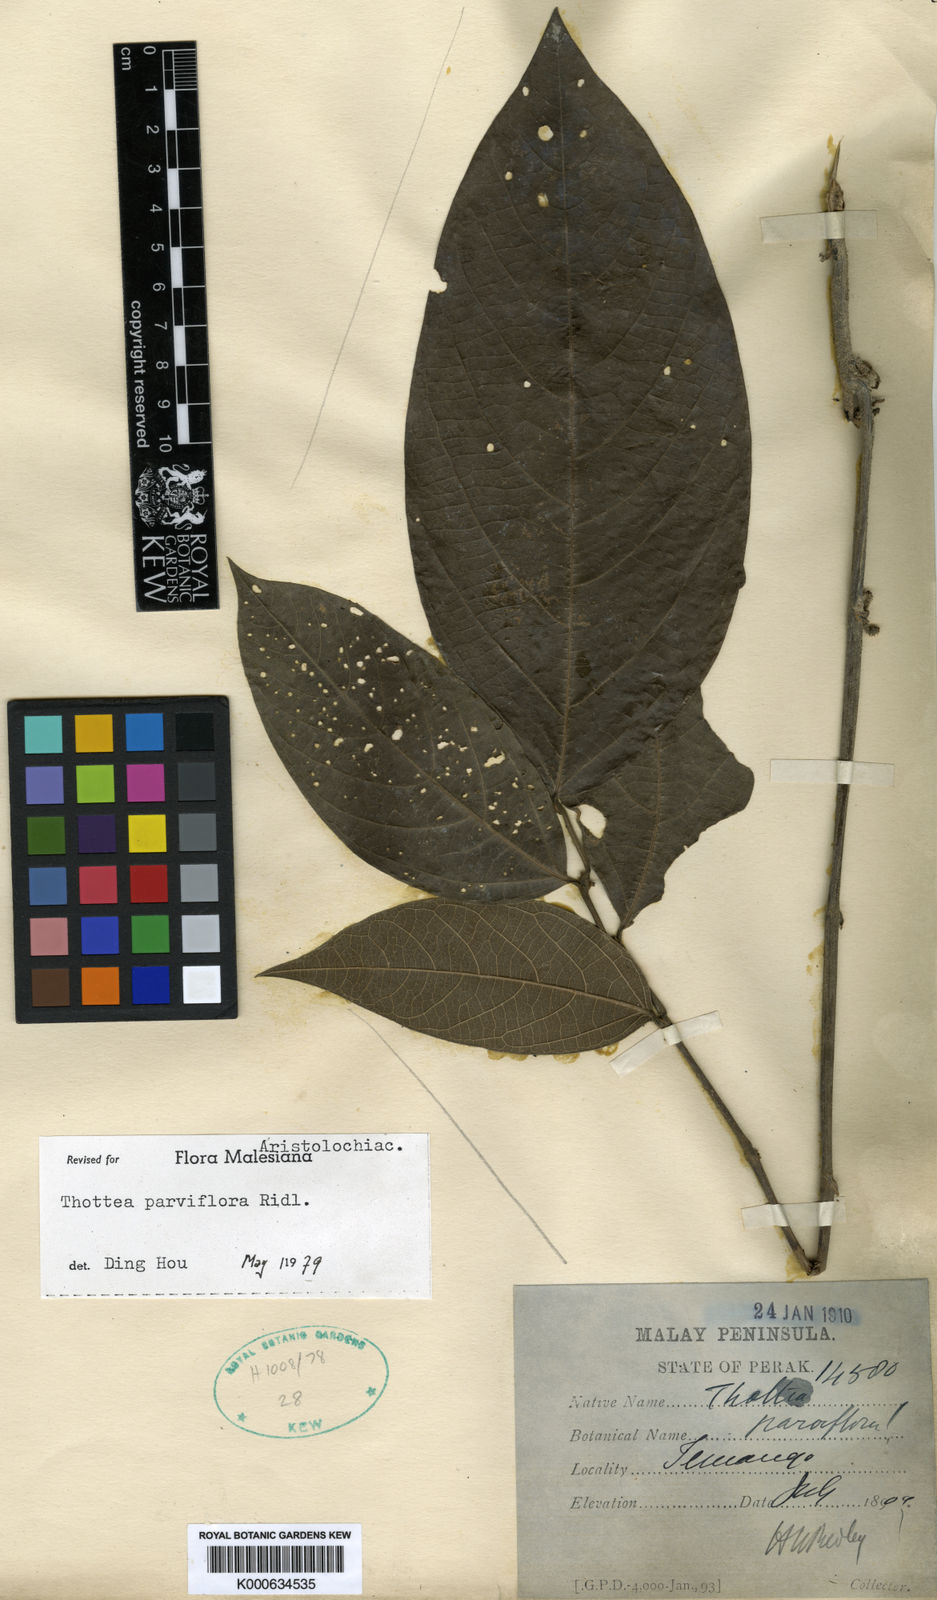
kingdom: Plantae
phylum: Tracheophyta
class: Magnoliopsida
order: Piperales
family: Aristolochiaceae
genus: Thottea
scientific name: Thottea parviflora
